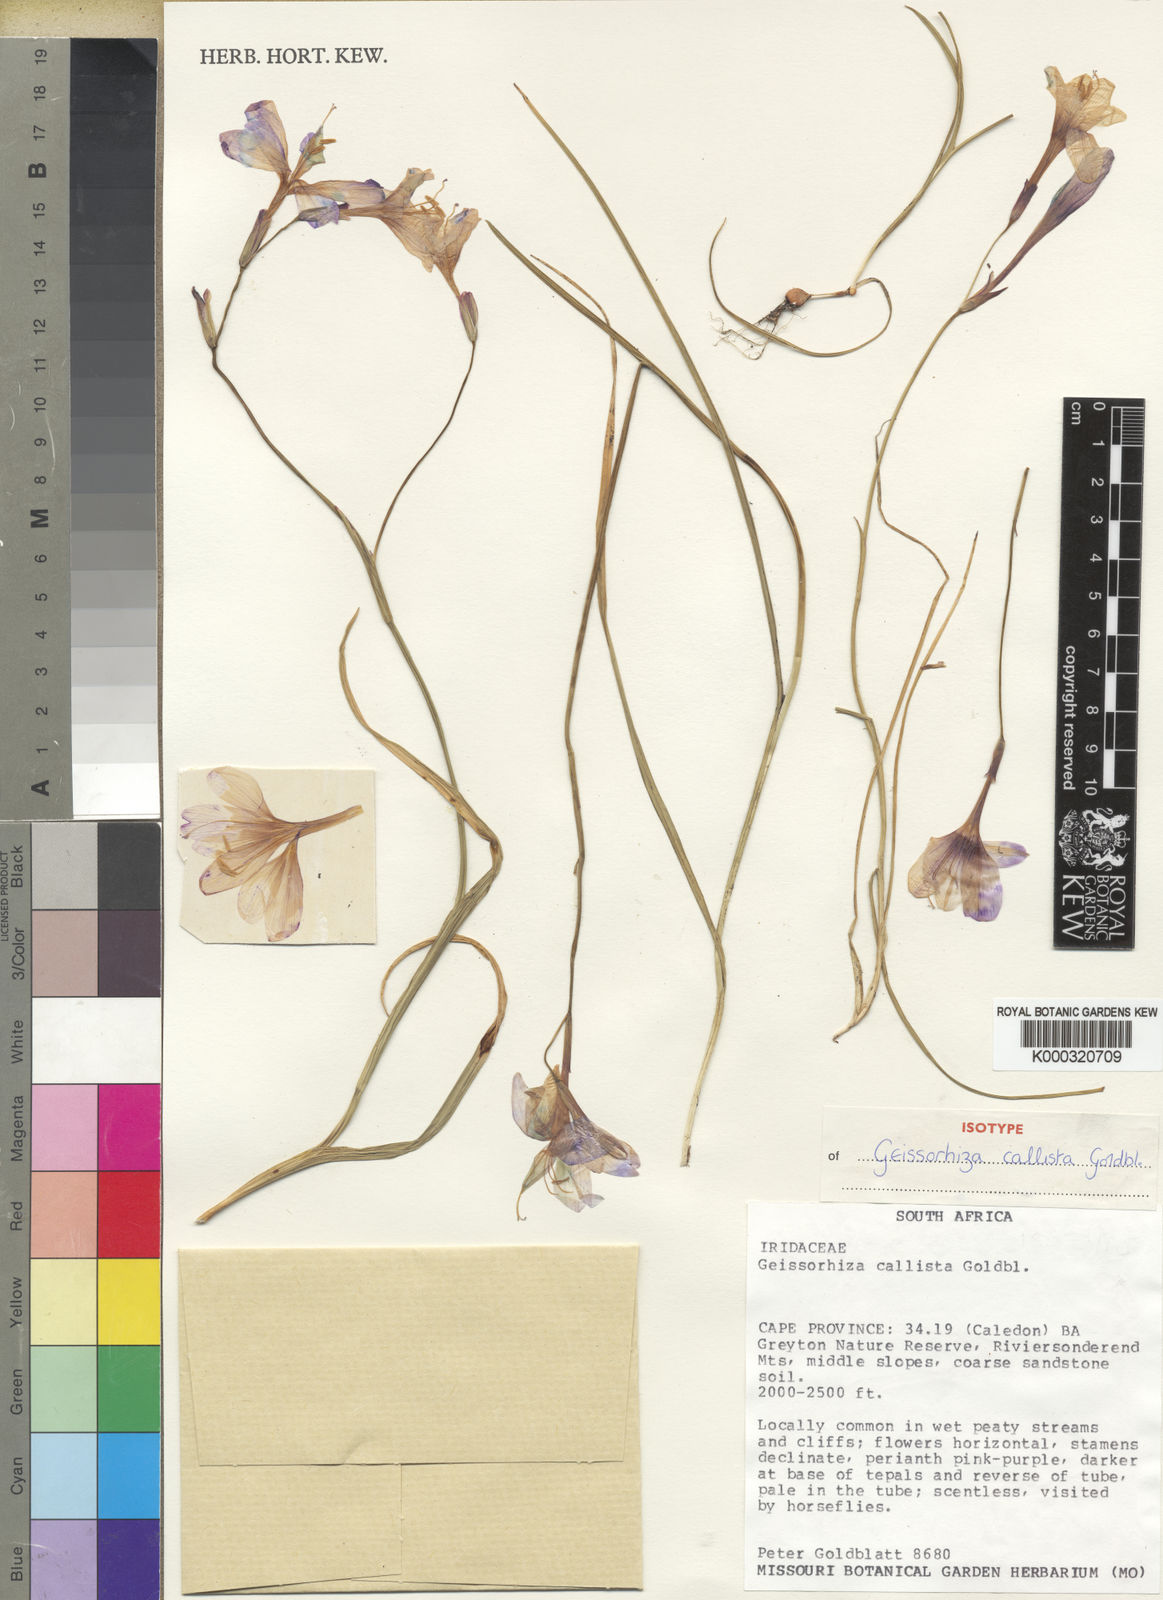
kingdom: Plantae
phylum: Tracheophyta
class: Liliopsida
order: Asparagales
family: Iridaceae
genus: Geissorhiza
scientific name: Geissorhiza callista
